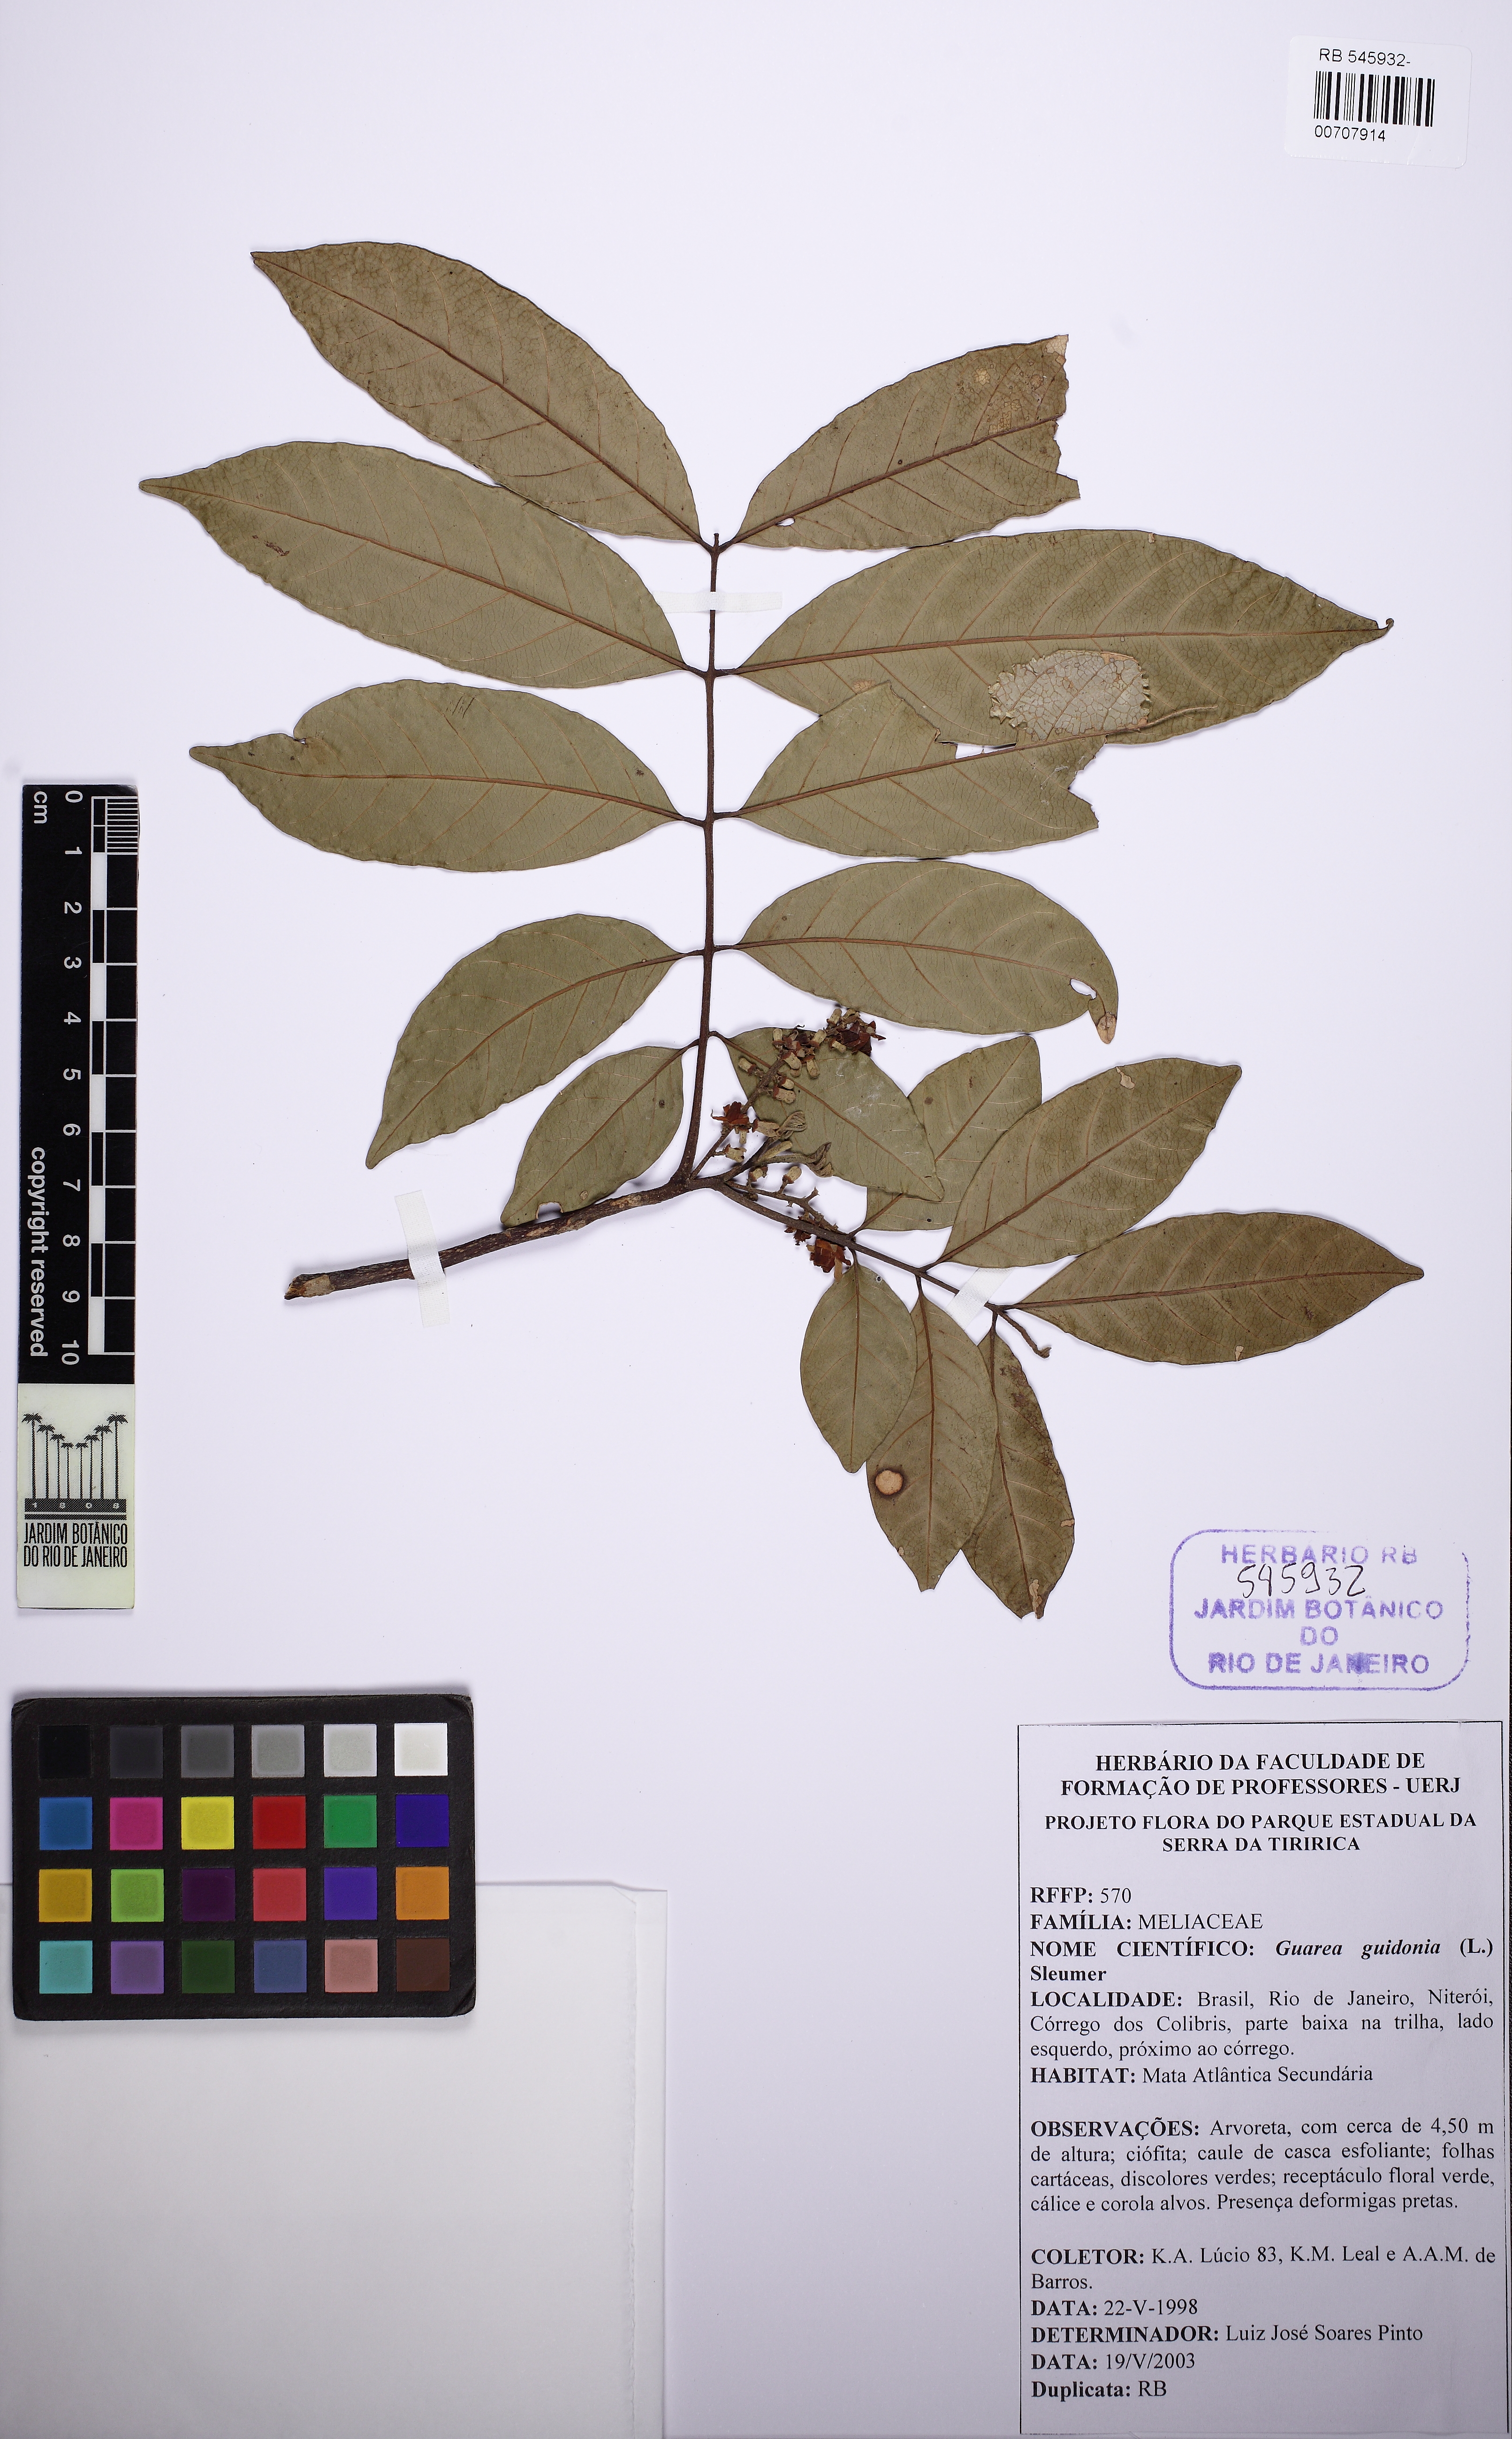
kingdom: Plantae
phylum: Tracheophyta
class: Magnoliopsida
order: Sapindales
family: Meliaceae
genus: Guarea
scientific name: Guarea guidonia
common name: American muskwood
